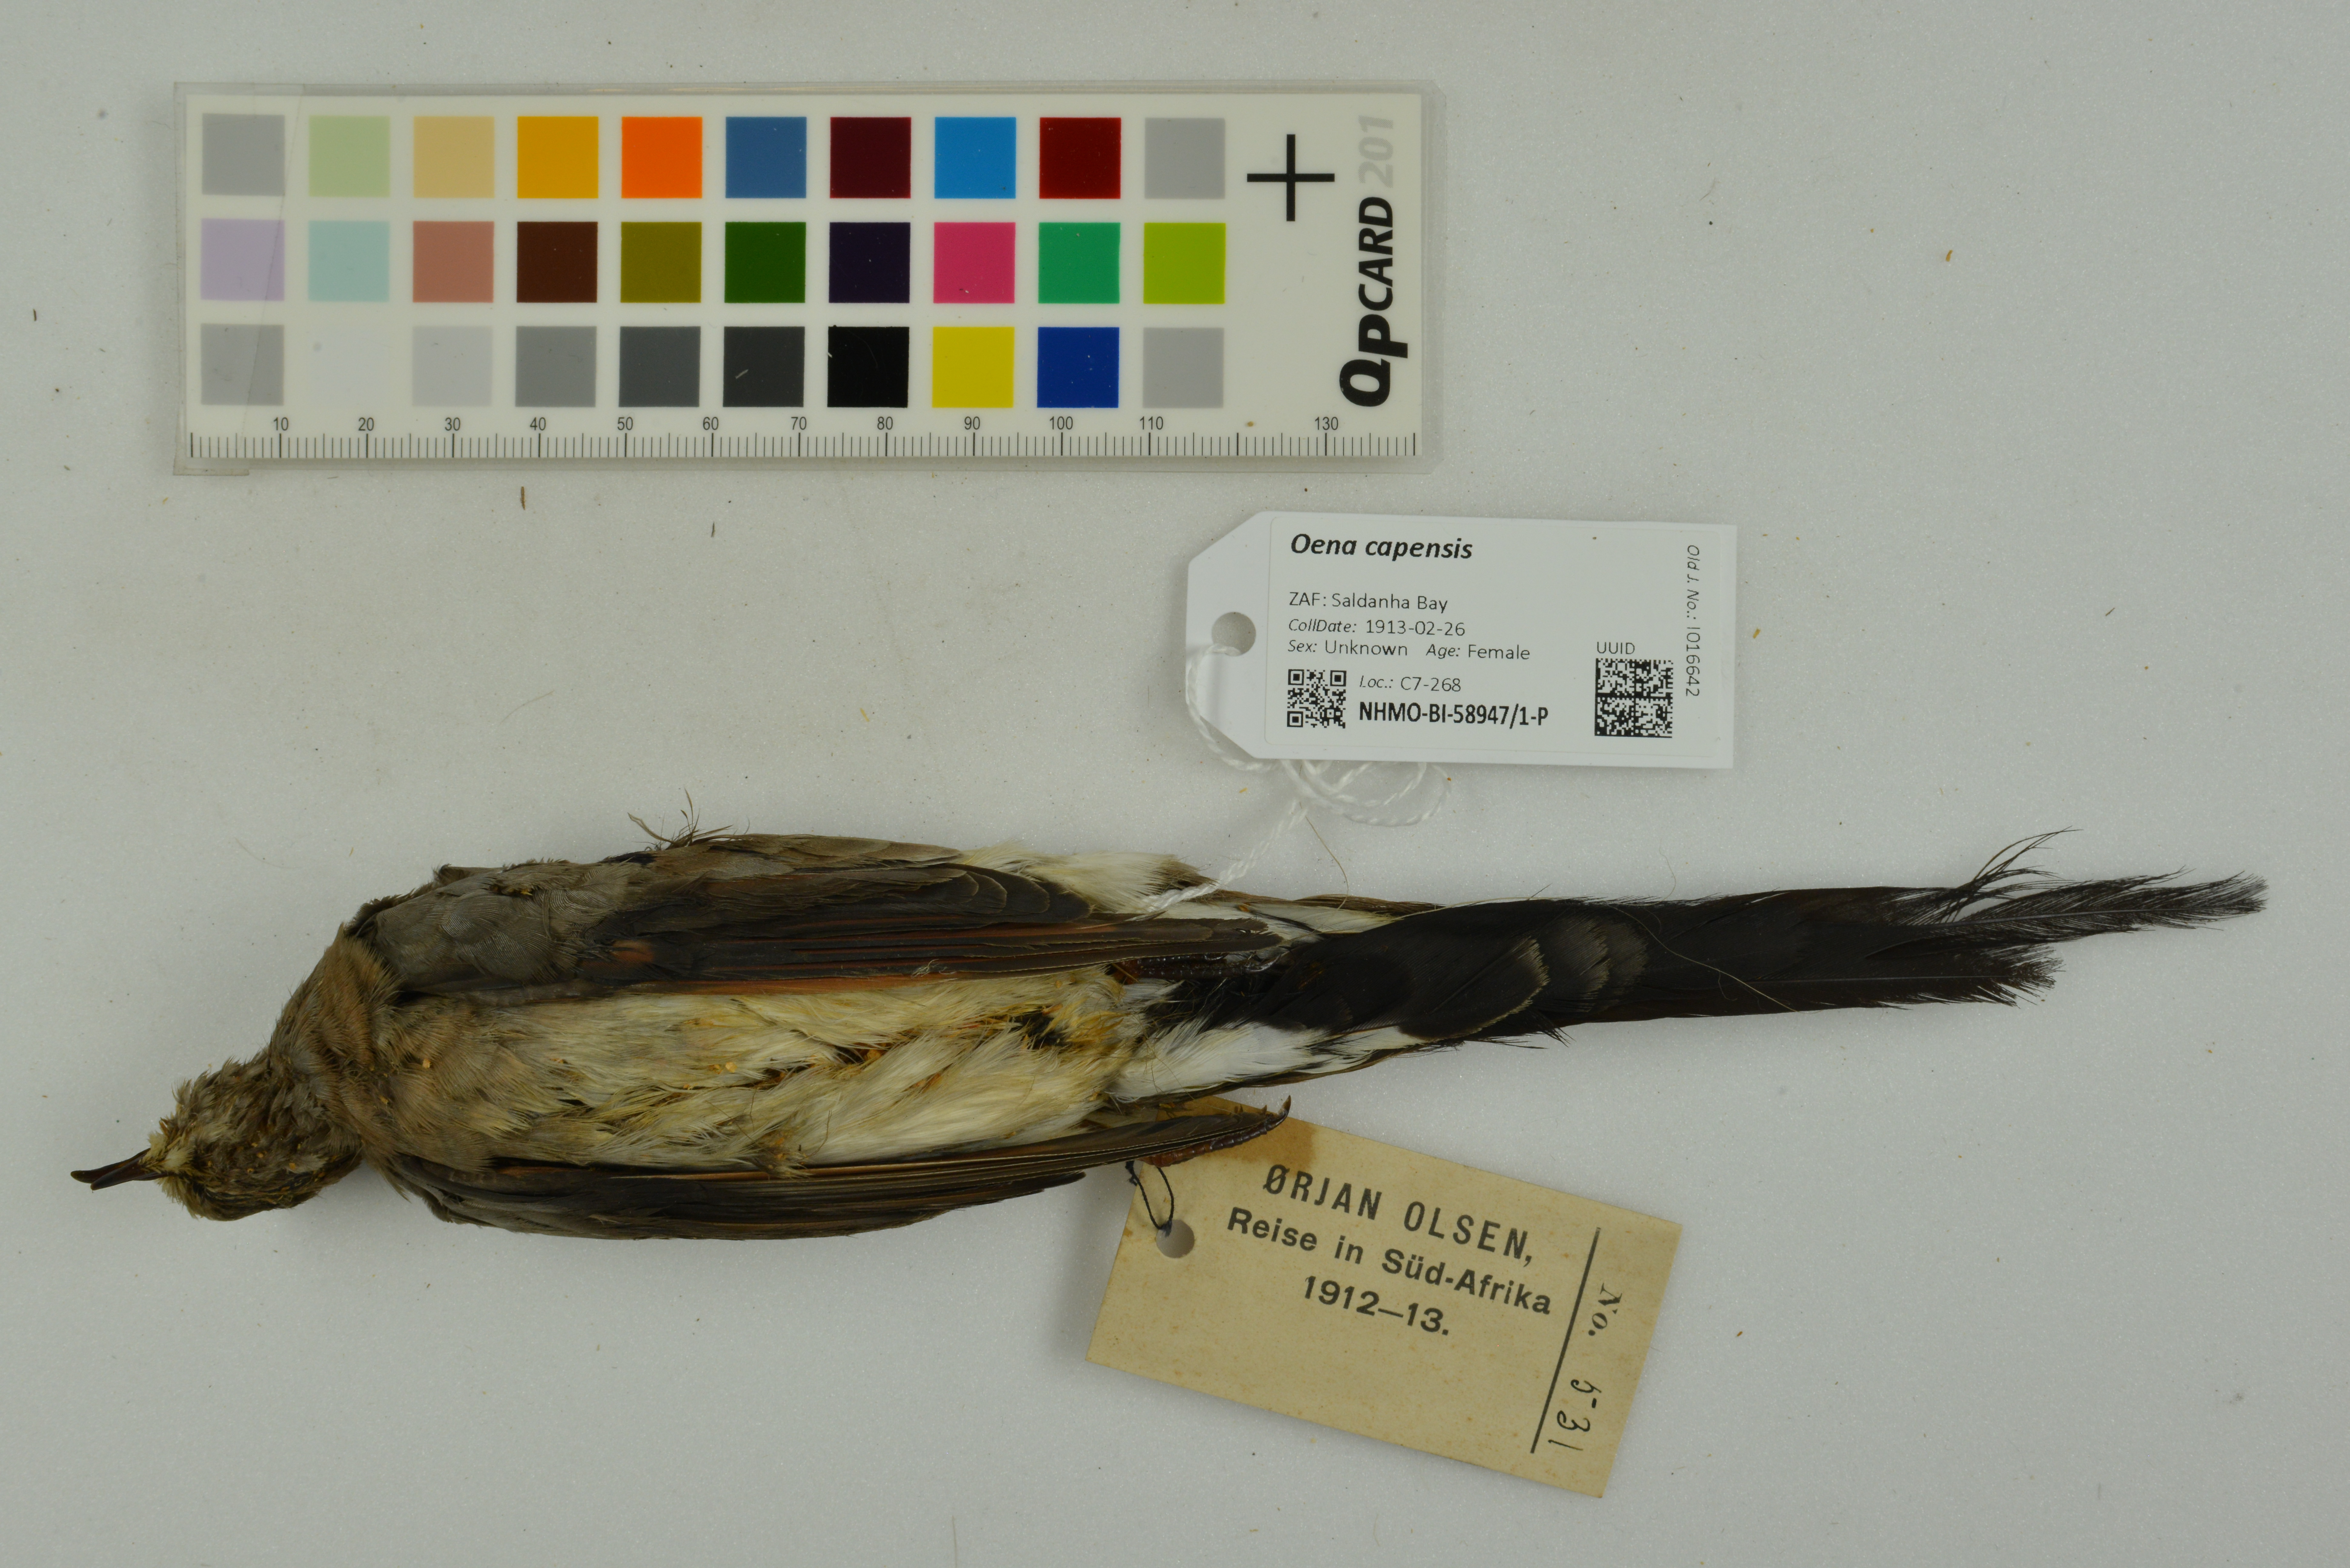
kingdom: Animalia
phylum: Chordata
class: Aves
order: Columbiformes
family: Columbidae
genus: Oena
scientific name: Oena capensis
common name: Namaqua dove
